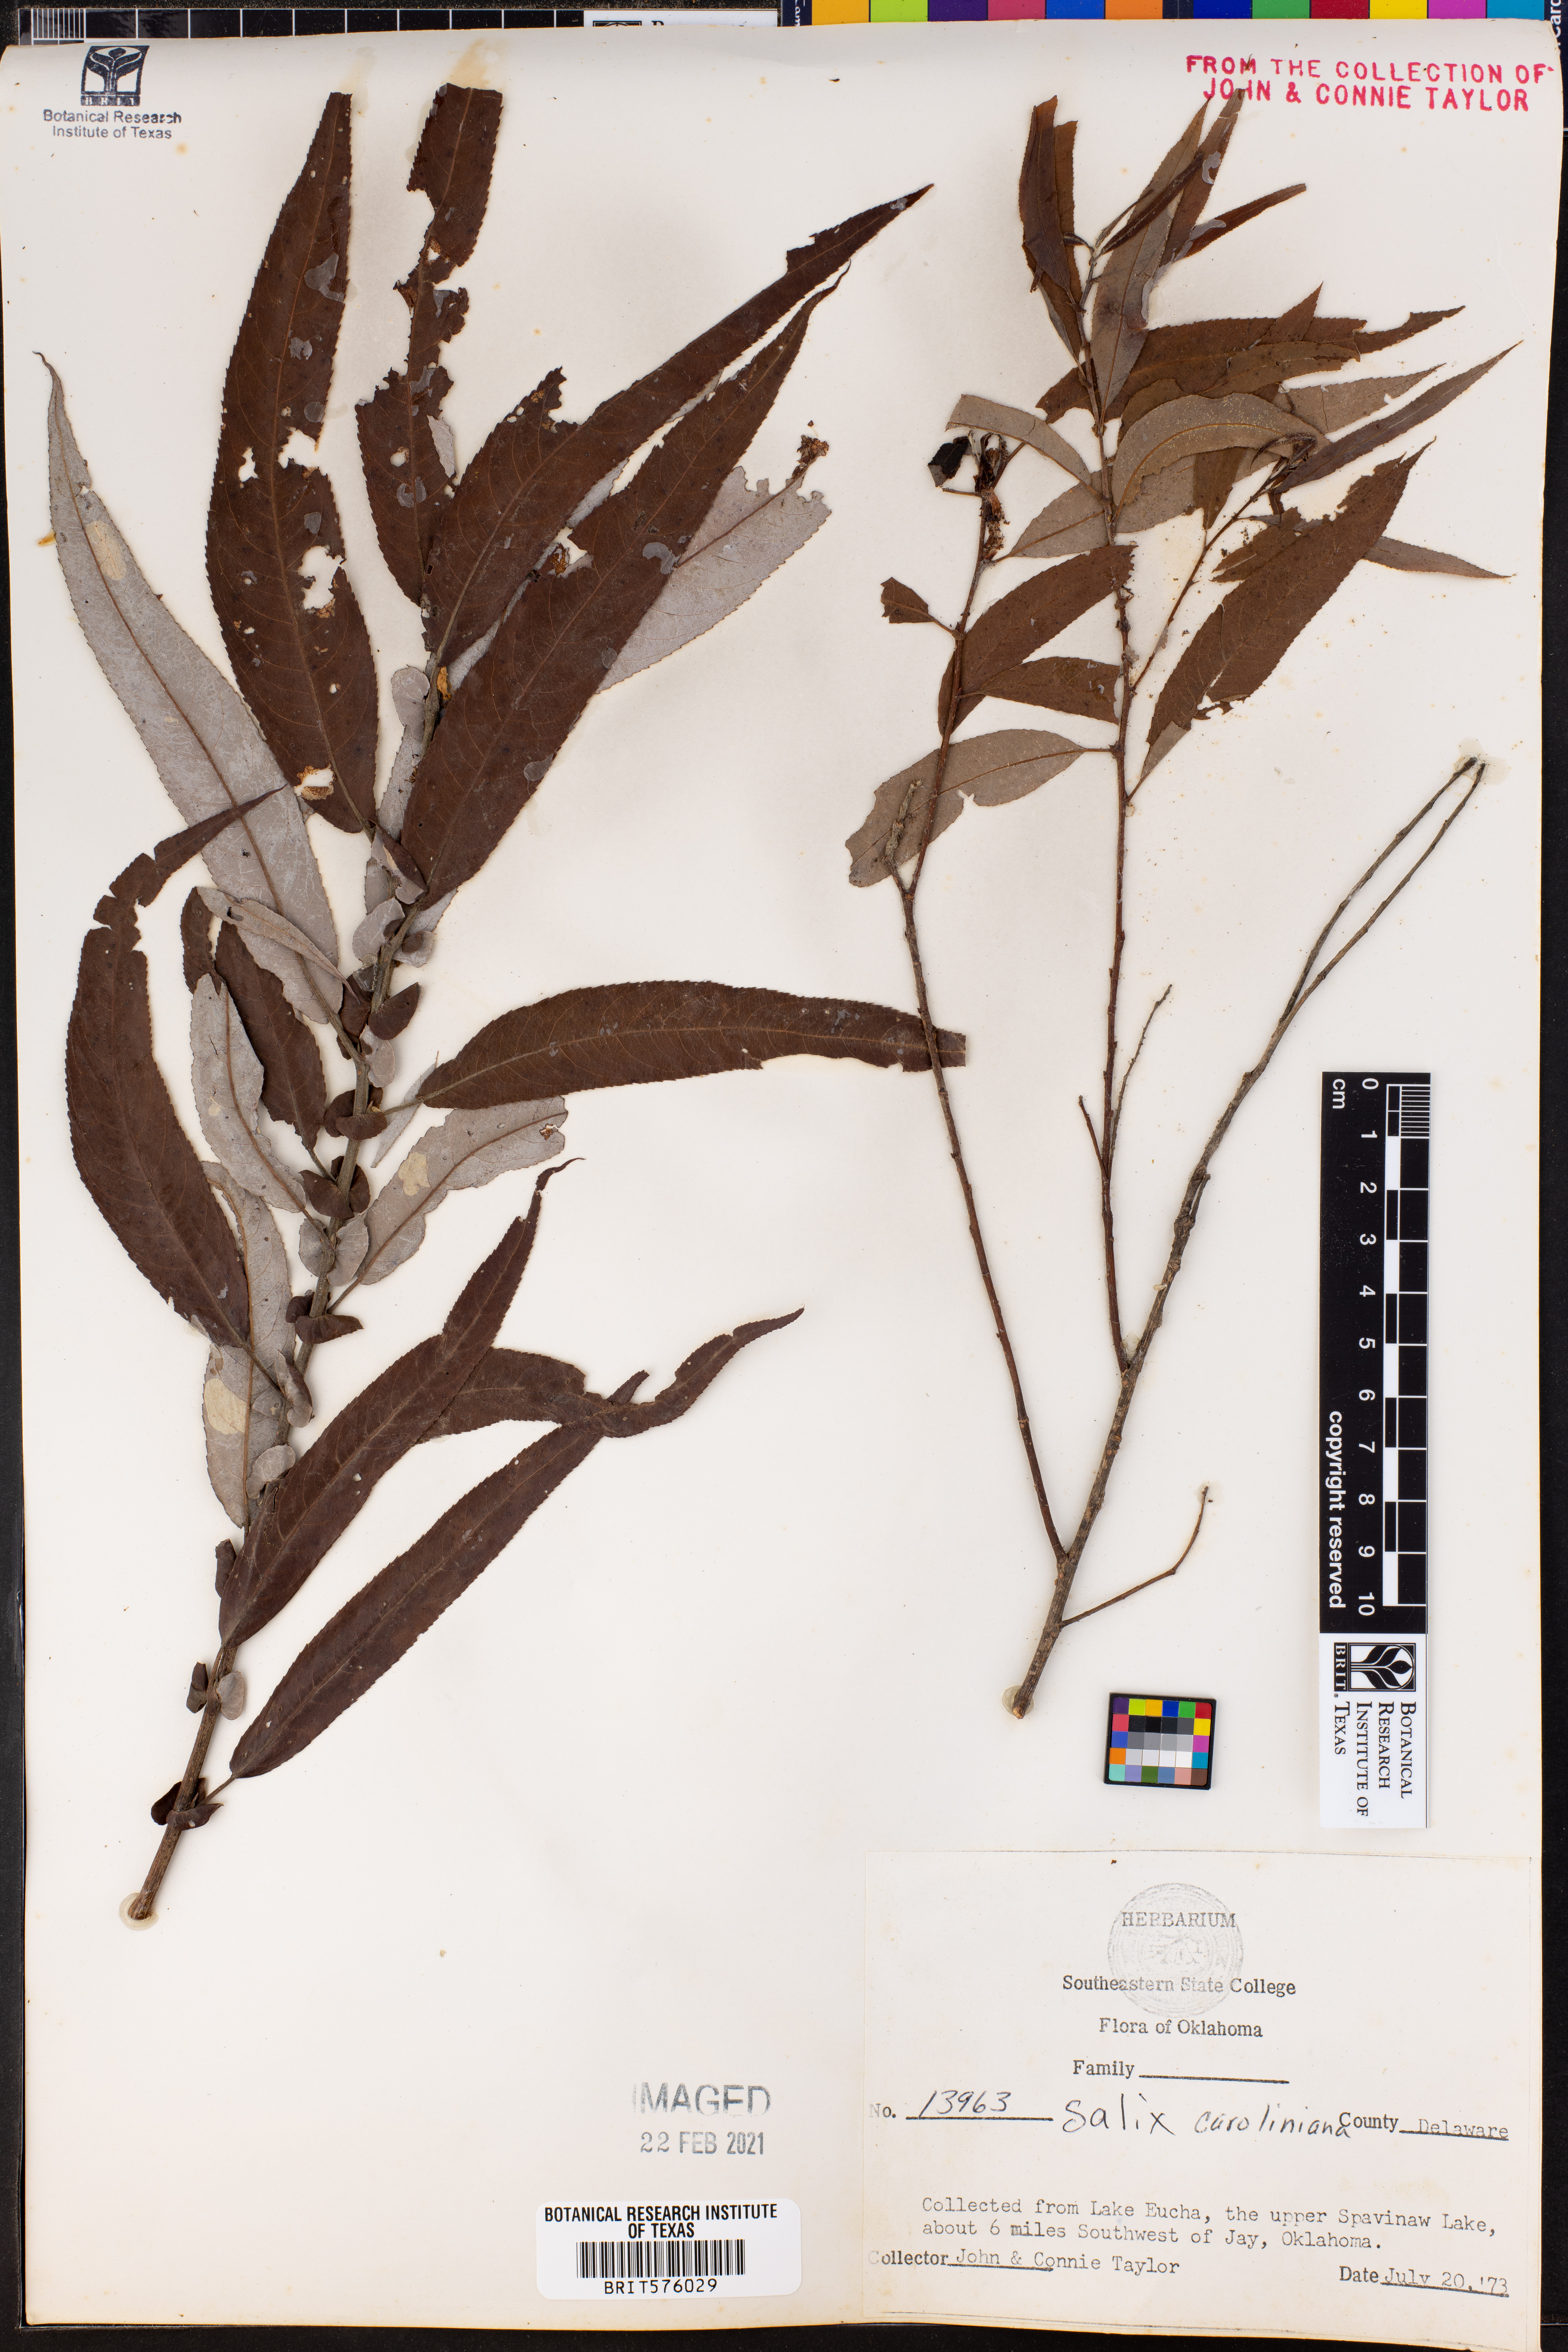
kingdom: Plantae
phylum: Tracheophyta
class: Magnoliopsida
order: Malpighiales
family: Salicaceae
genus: Salix
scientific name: Salix caroliniana
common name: Carolina willow
